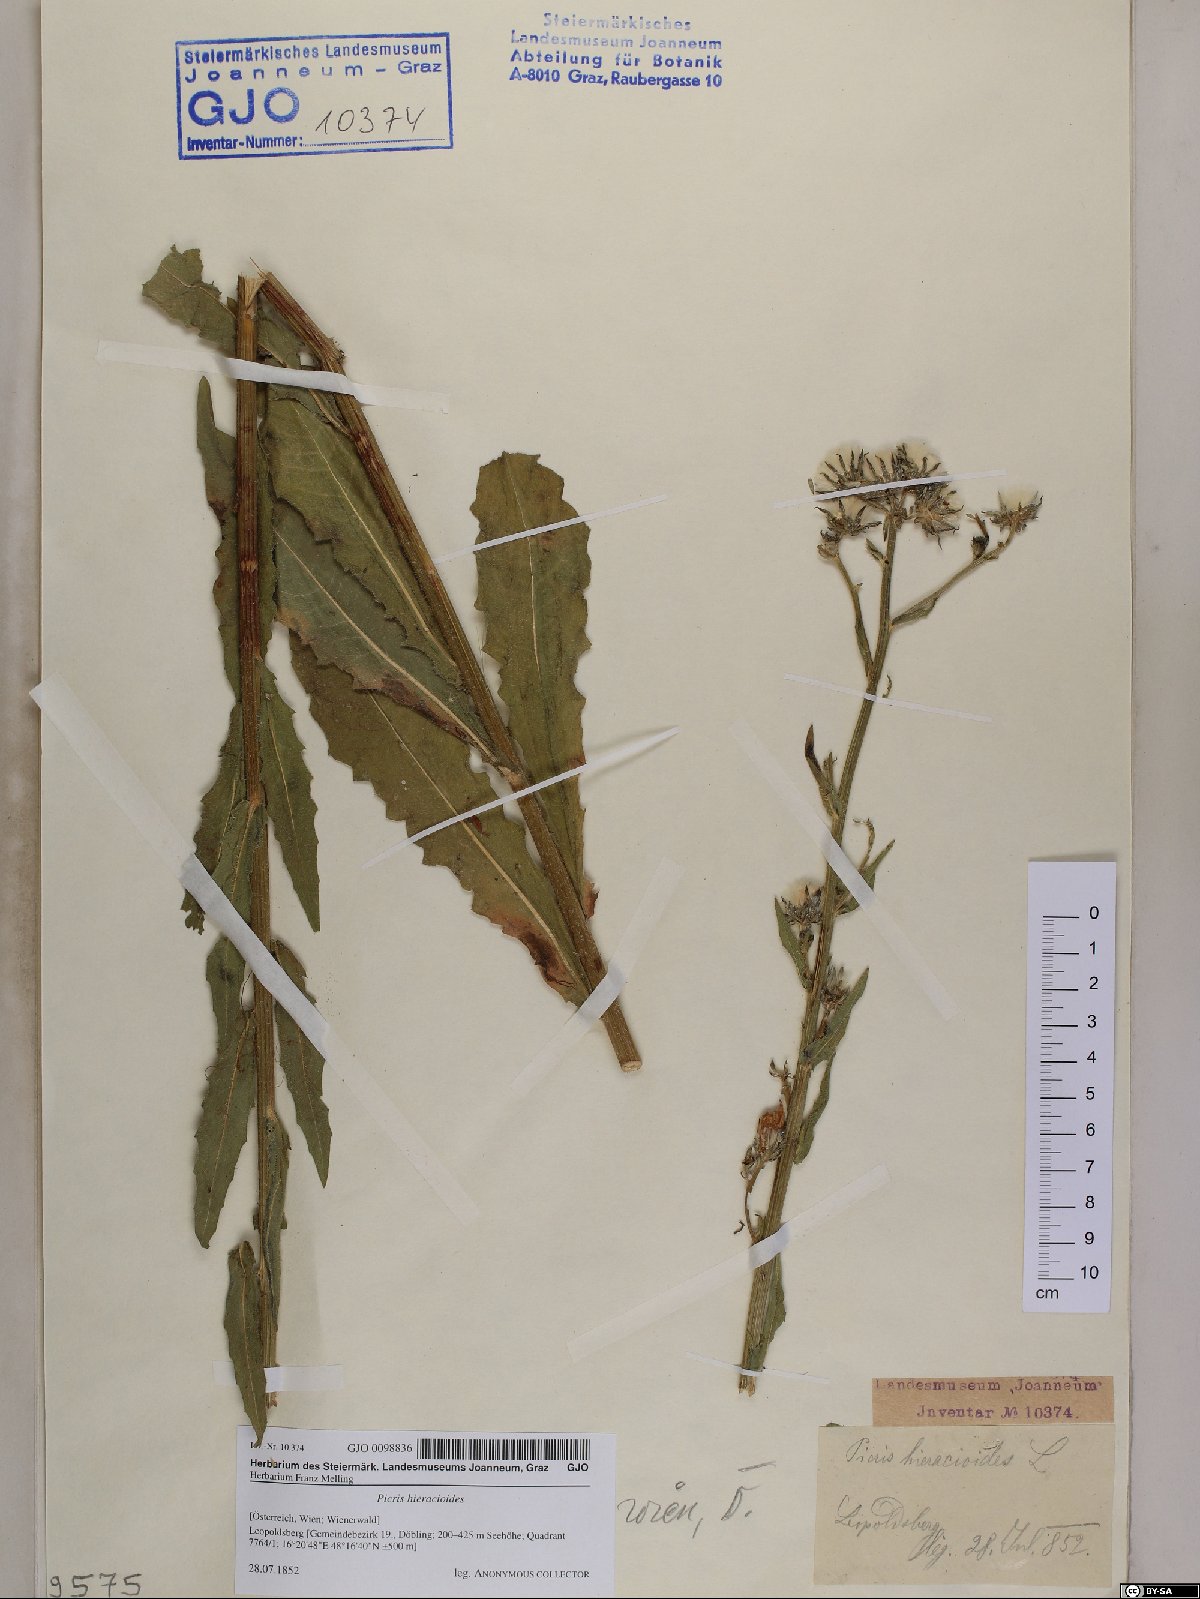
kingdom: Plantae
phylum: Tracheophyta
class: Magnoliopsida
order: Asterales
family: Asteraceae
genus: Picris
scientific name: Picris hieracioides
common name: Hawkweed oxtongue
